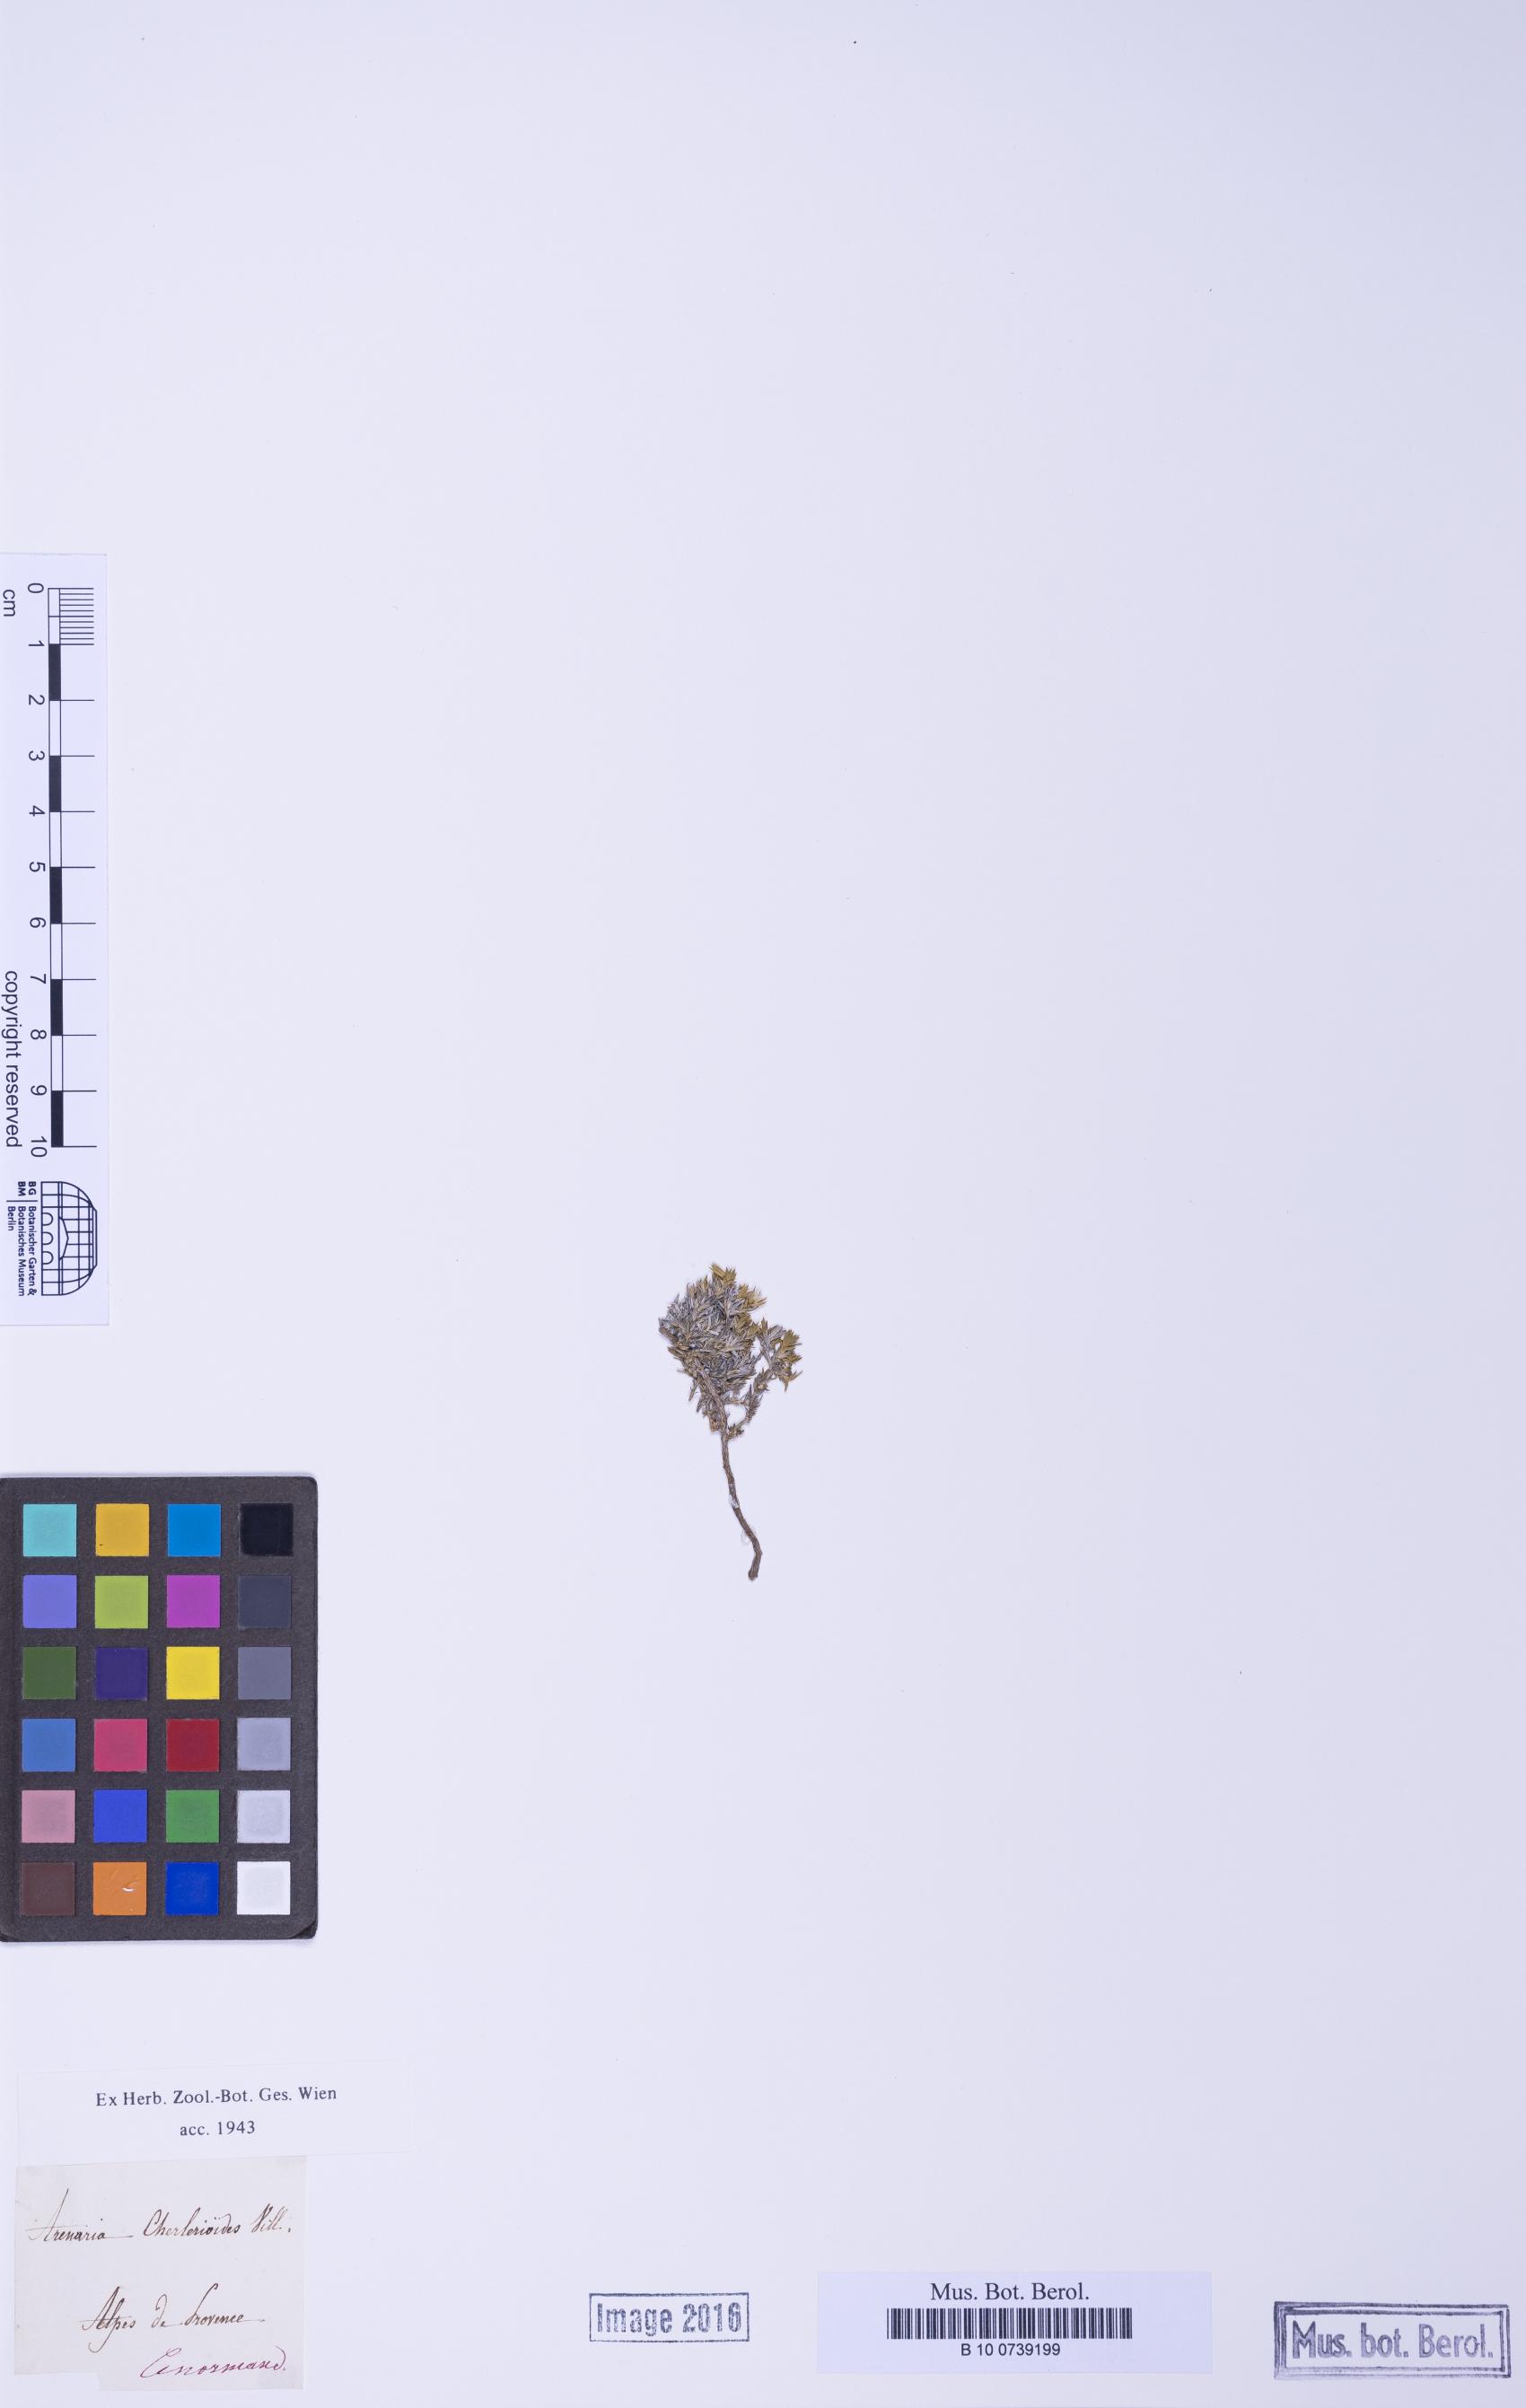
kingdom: Plantae
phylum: Tracheophyta
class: Magnoliopsida
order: Caryophyllales
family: Caryophyllaceae
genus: Facchinia
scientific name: Facchinia rupestris
